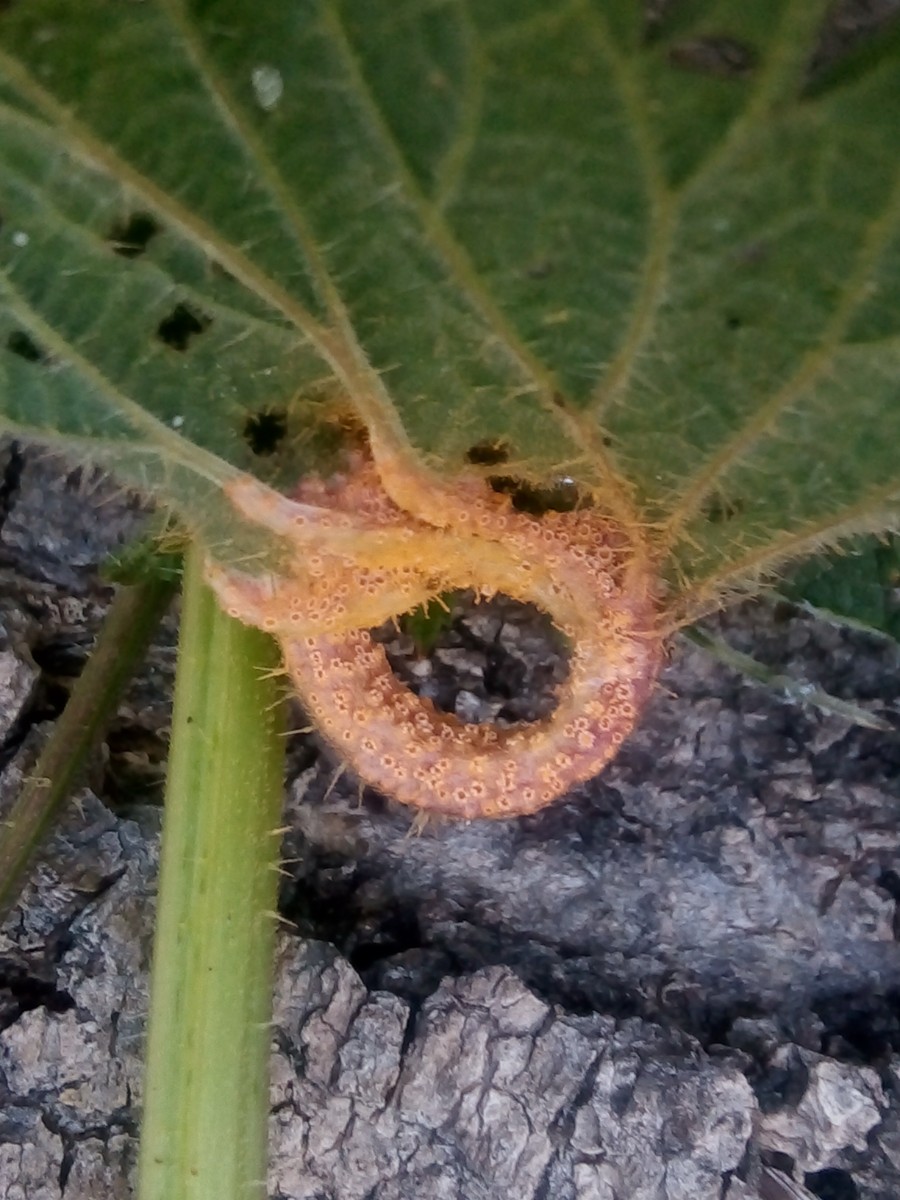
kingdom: Fungi
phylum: Basidiomycota
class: Pucciniomycetes
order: Pucciniales
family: Pucciniaceae
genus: Puccinia
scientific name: Puccinia urticata
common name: nældegalle-tvecellerust
